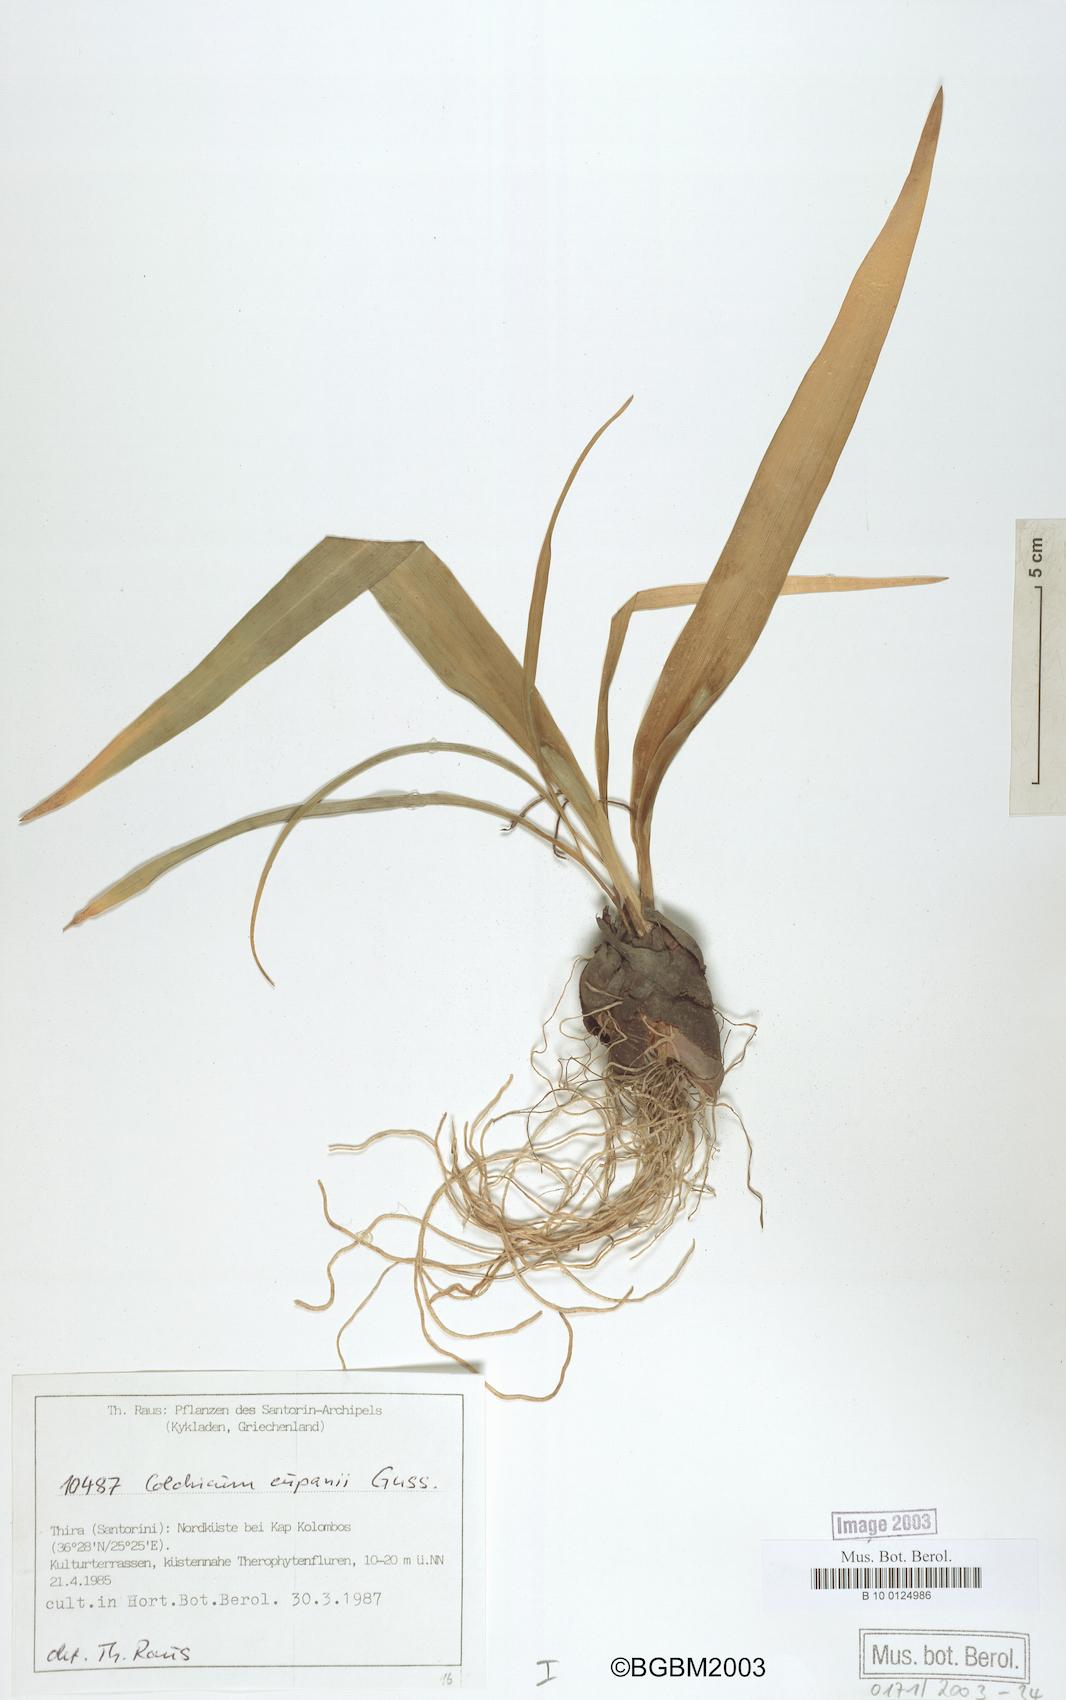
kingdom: Plantae
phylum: Tracheophyta
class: Liliopsida
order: Liliales
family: Colchicaceae
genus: Colchicum
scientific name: Colchicum cupanii
